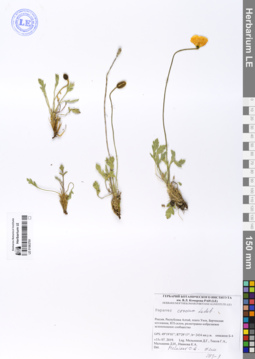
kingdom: Plantae
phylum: Tracheophyta
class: Magnoliopsida
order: Ranunculales
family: Papaveraceae
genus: Papaver
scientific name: Papaver croceum
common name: Siberian poppy
